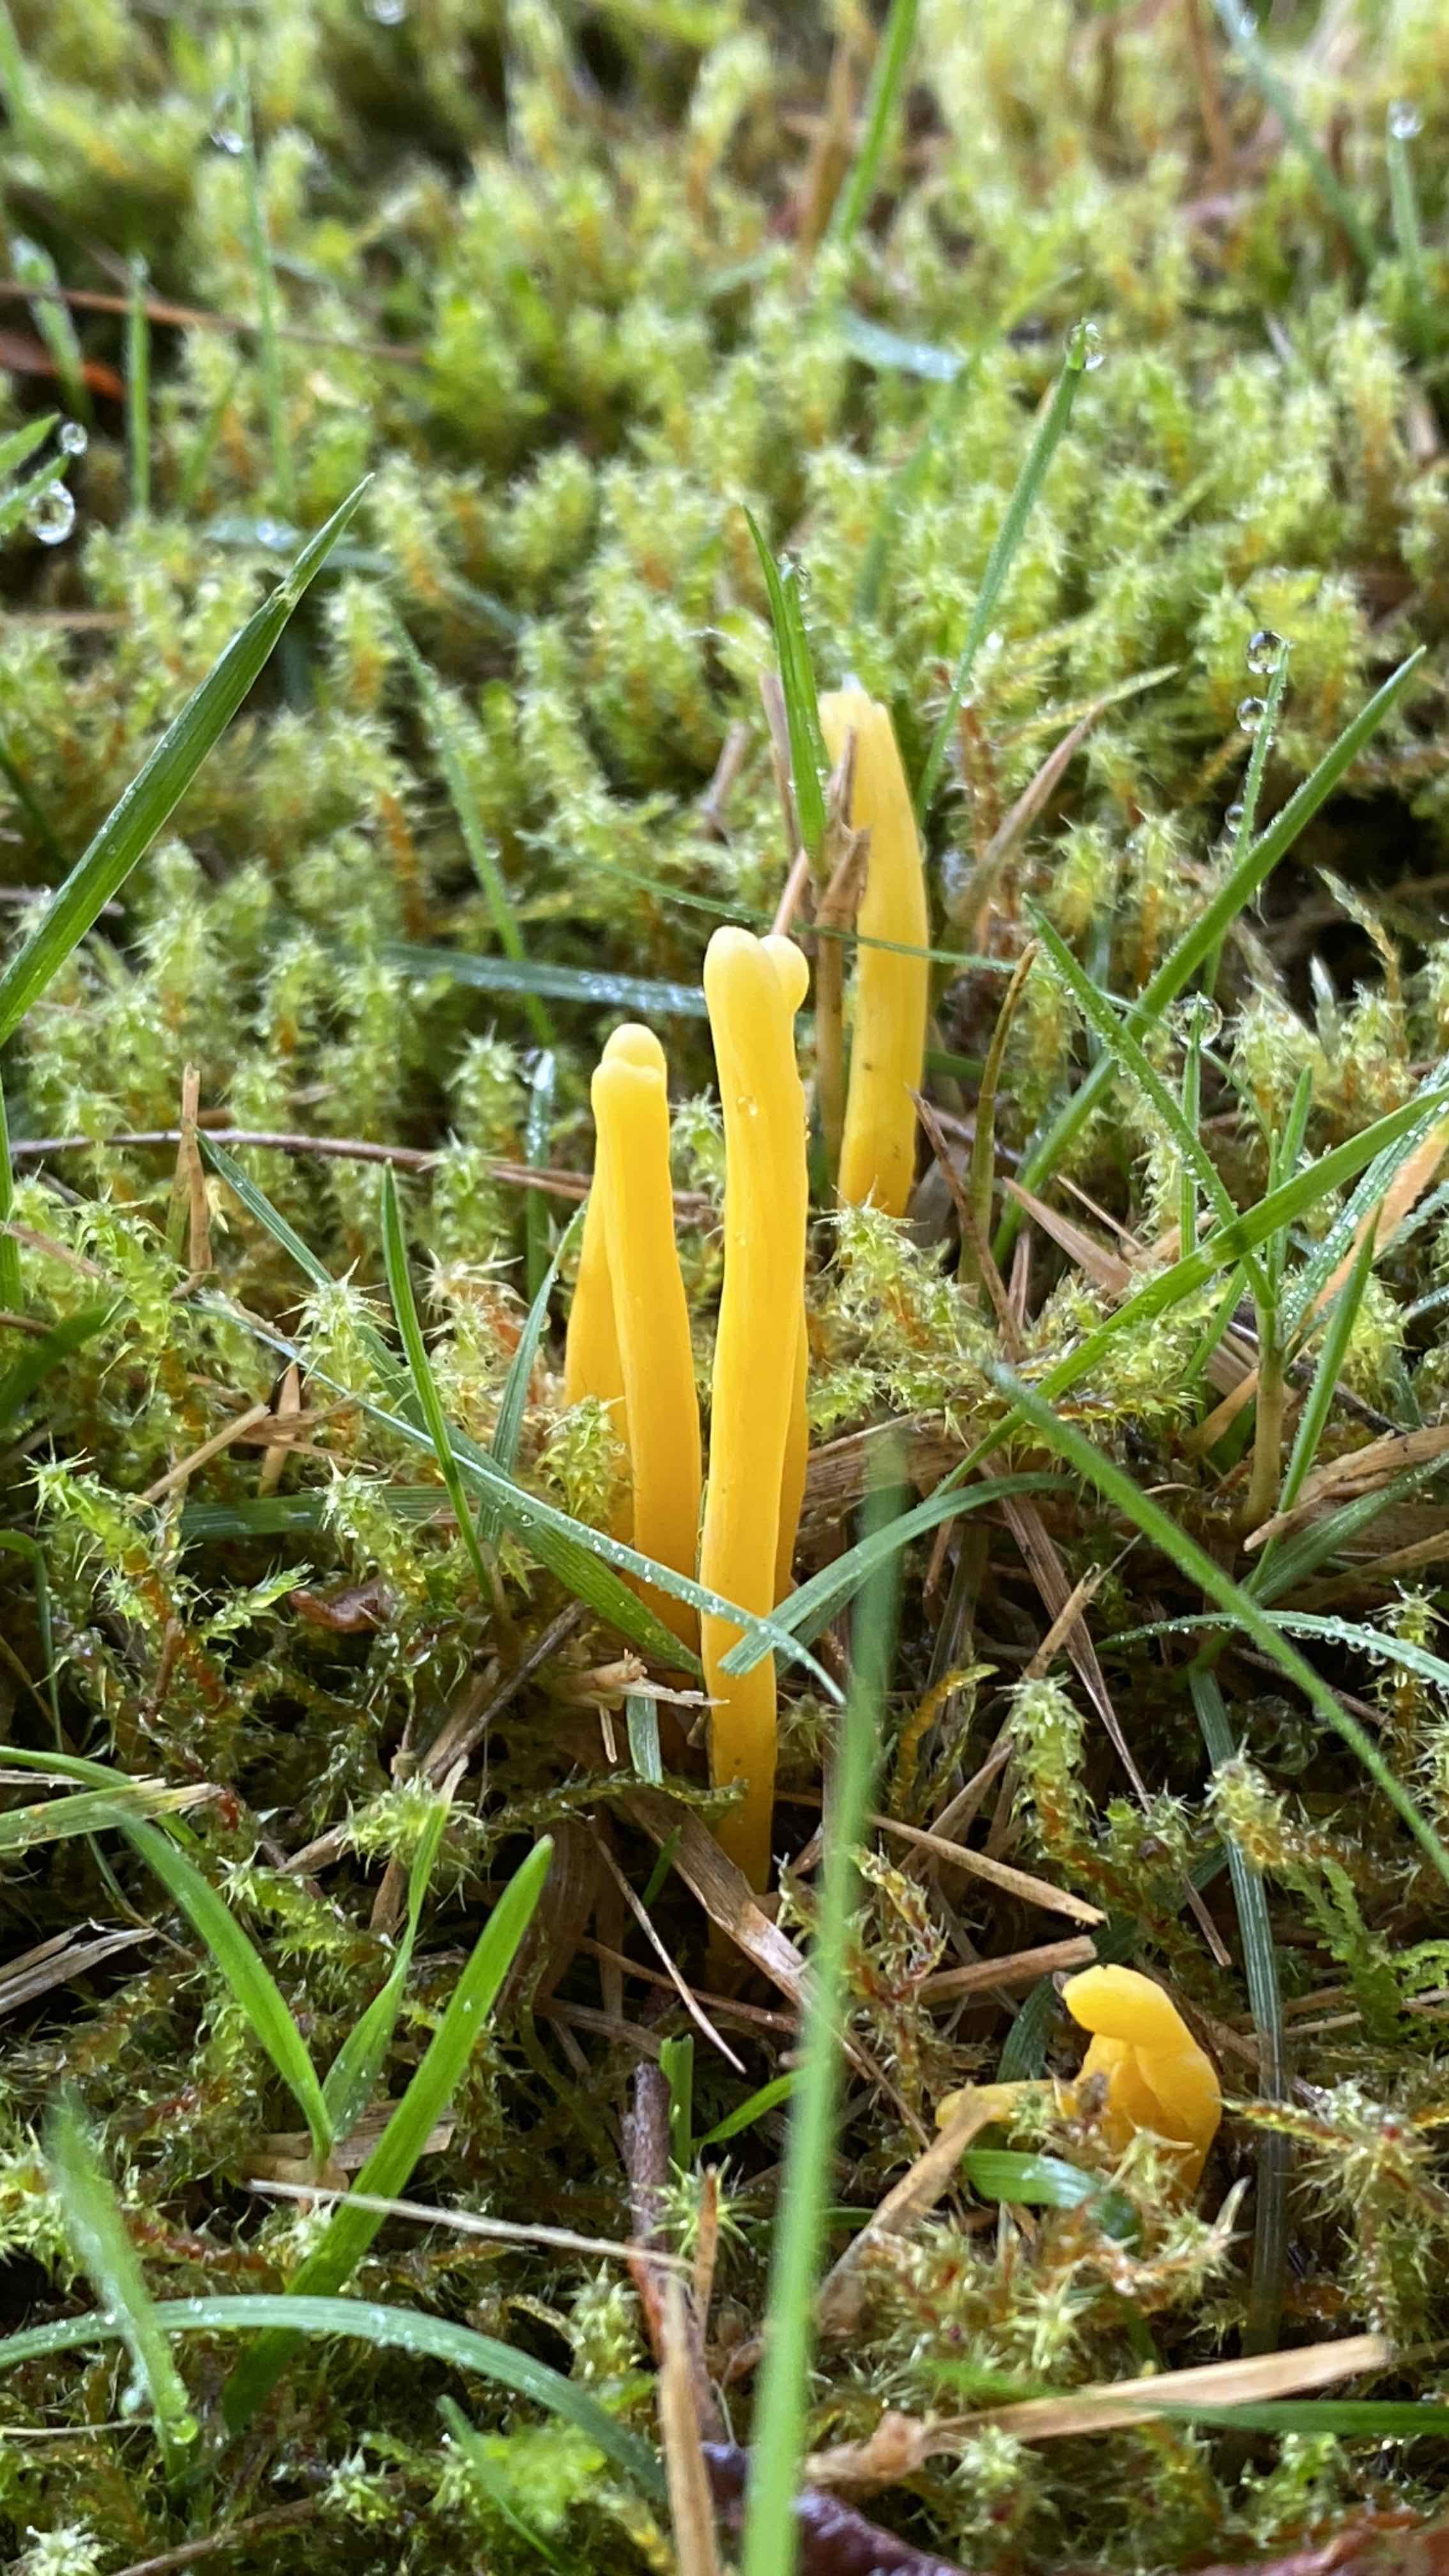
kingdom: Fungi
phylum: Basidiomycota
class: Agaricomycetes
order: Agaricales
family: Clavariaceae
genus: Clavulinopsis
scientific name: Clavulinopsis
